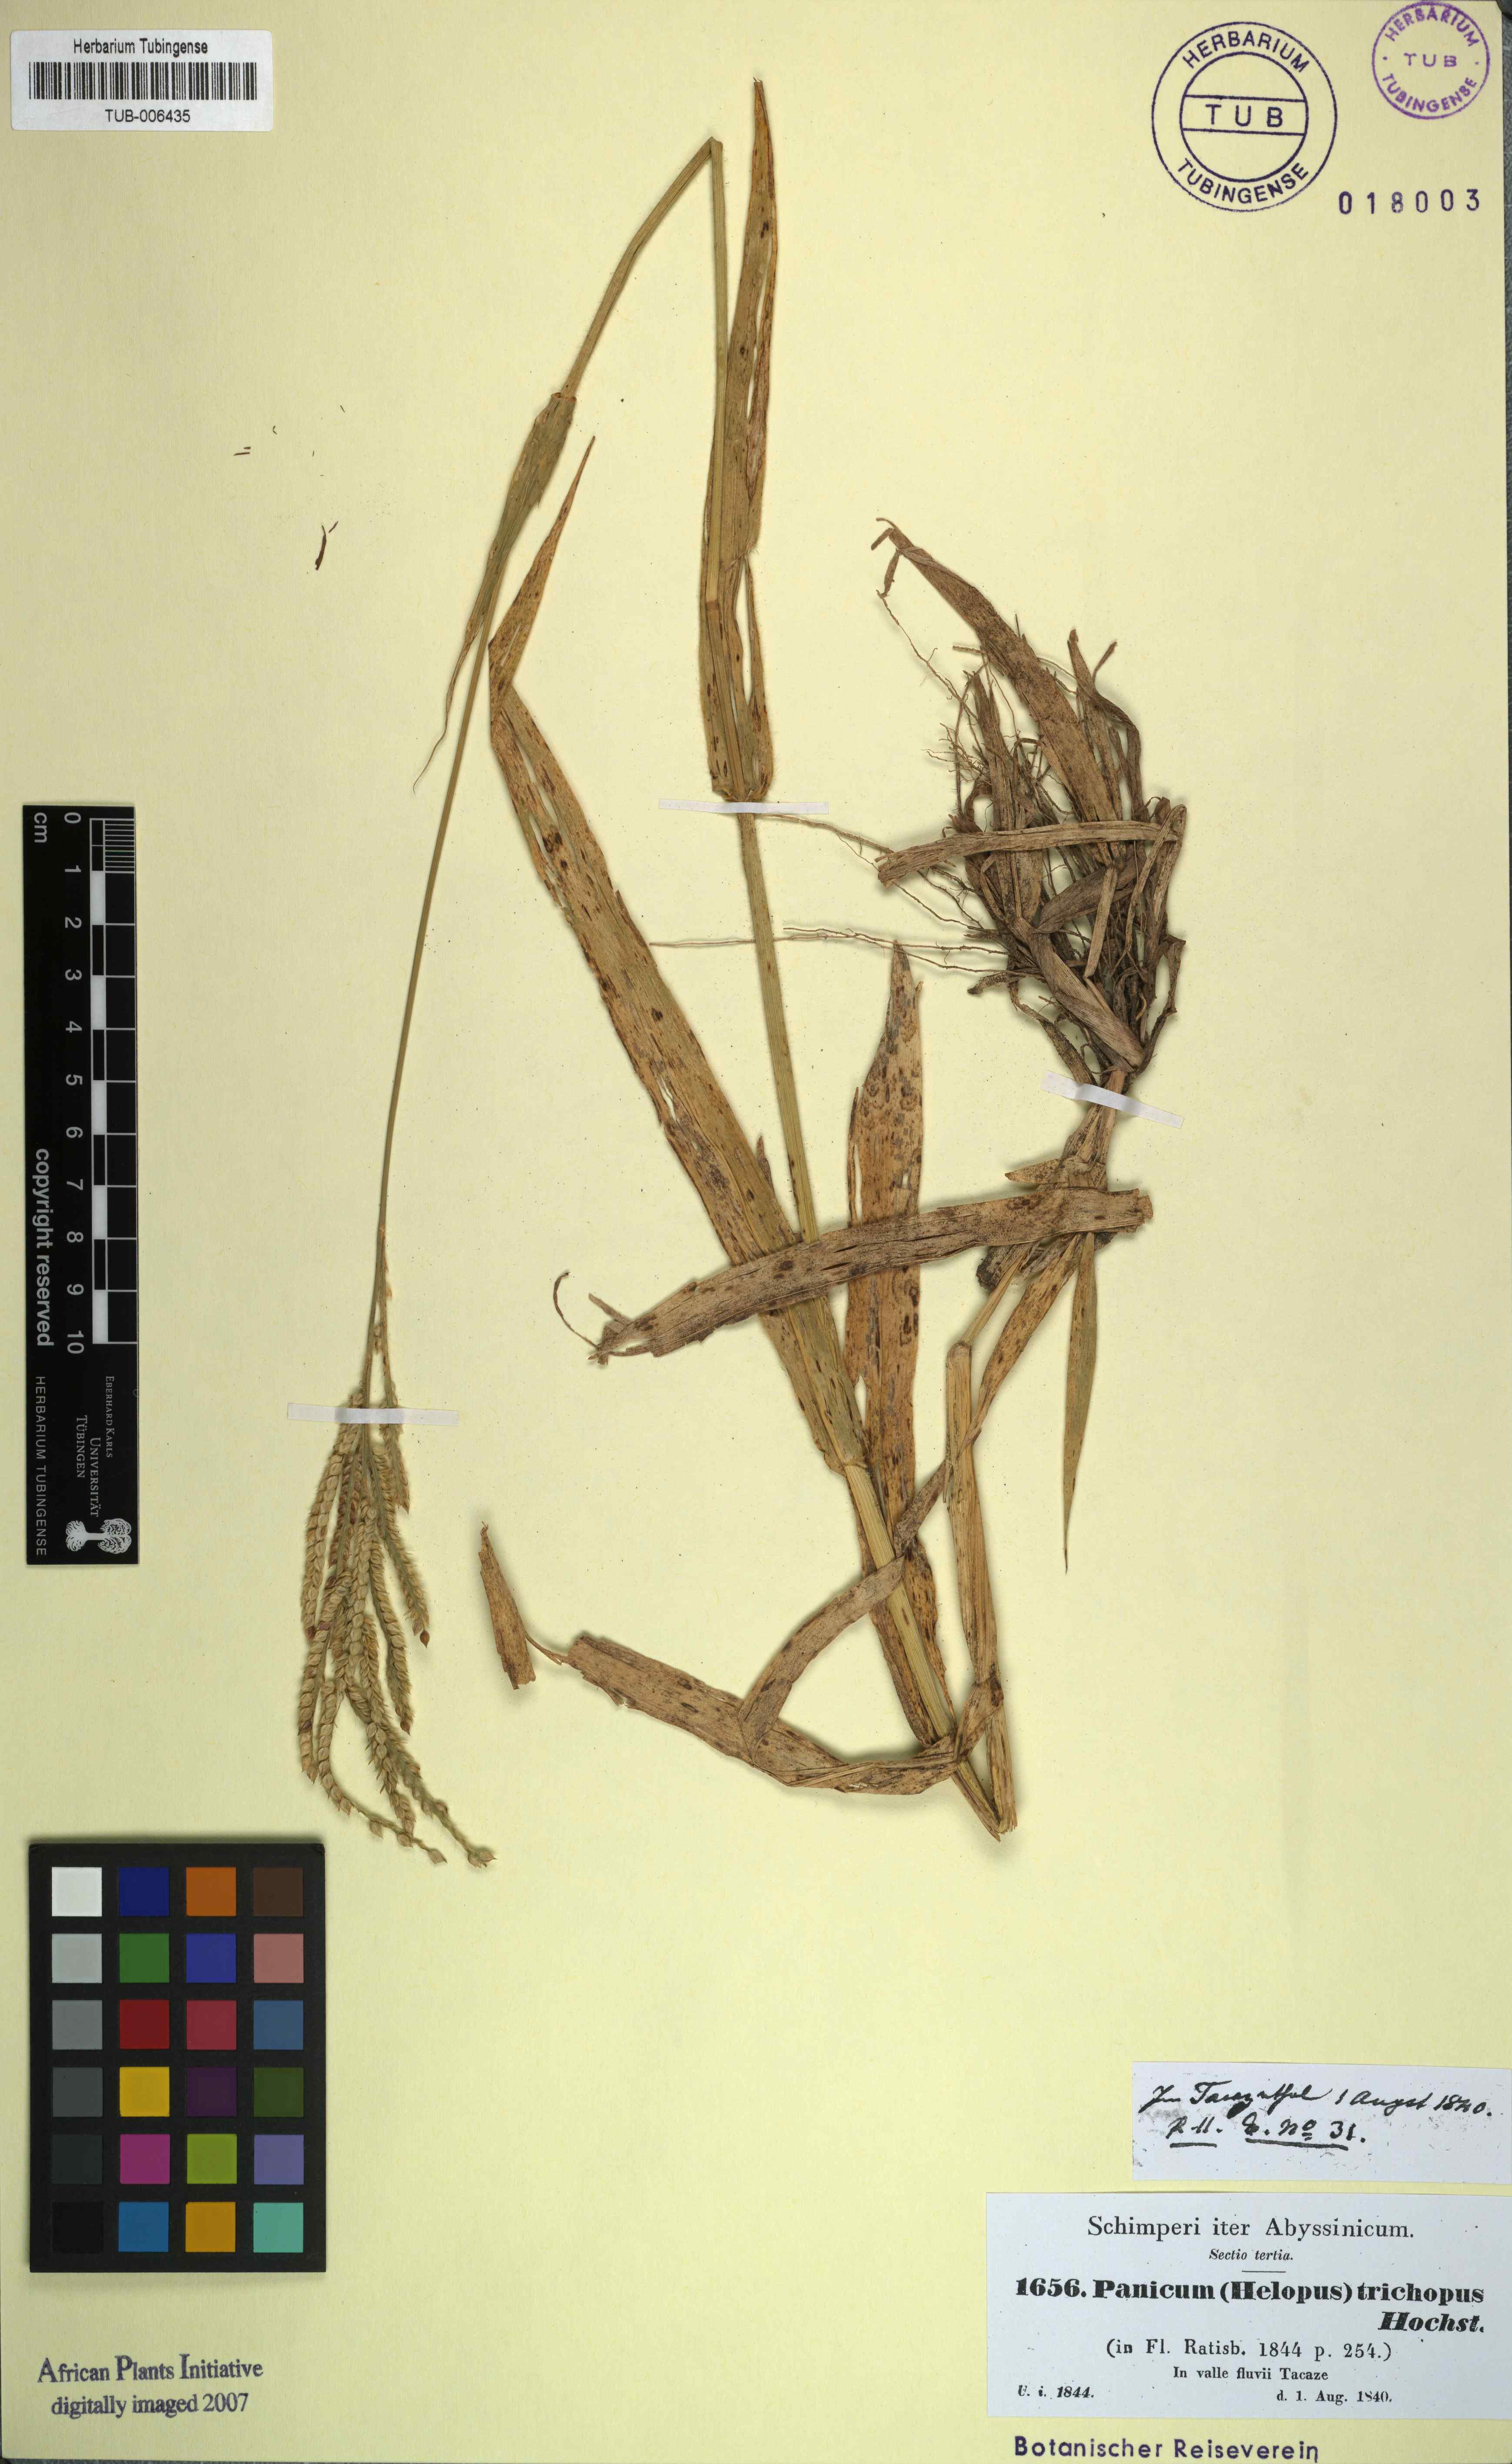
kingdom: Plantae
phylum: Tracheophyta
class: Liliopsida
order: Poales
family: Poaceae
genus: Urochloa
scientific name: Urochloa panicoides
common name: Sharp-flowered signal-grass
